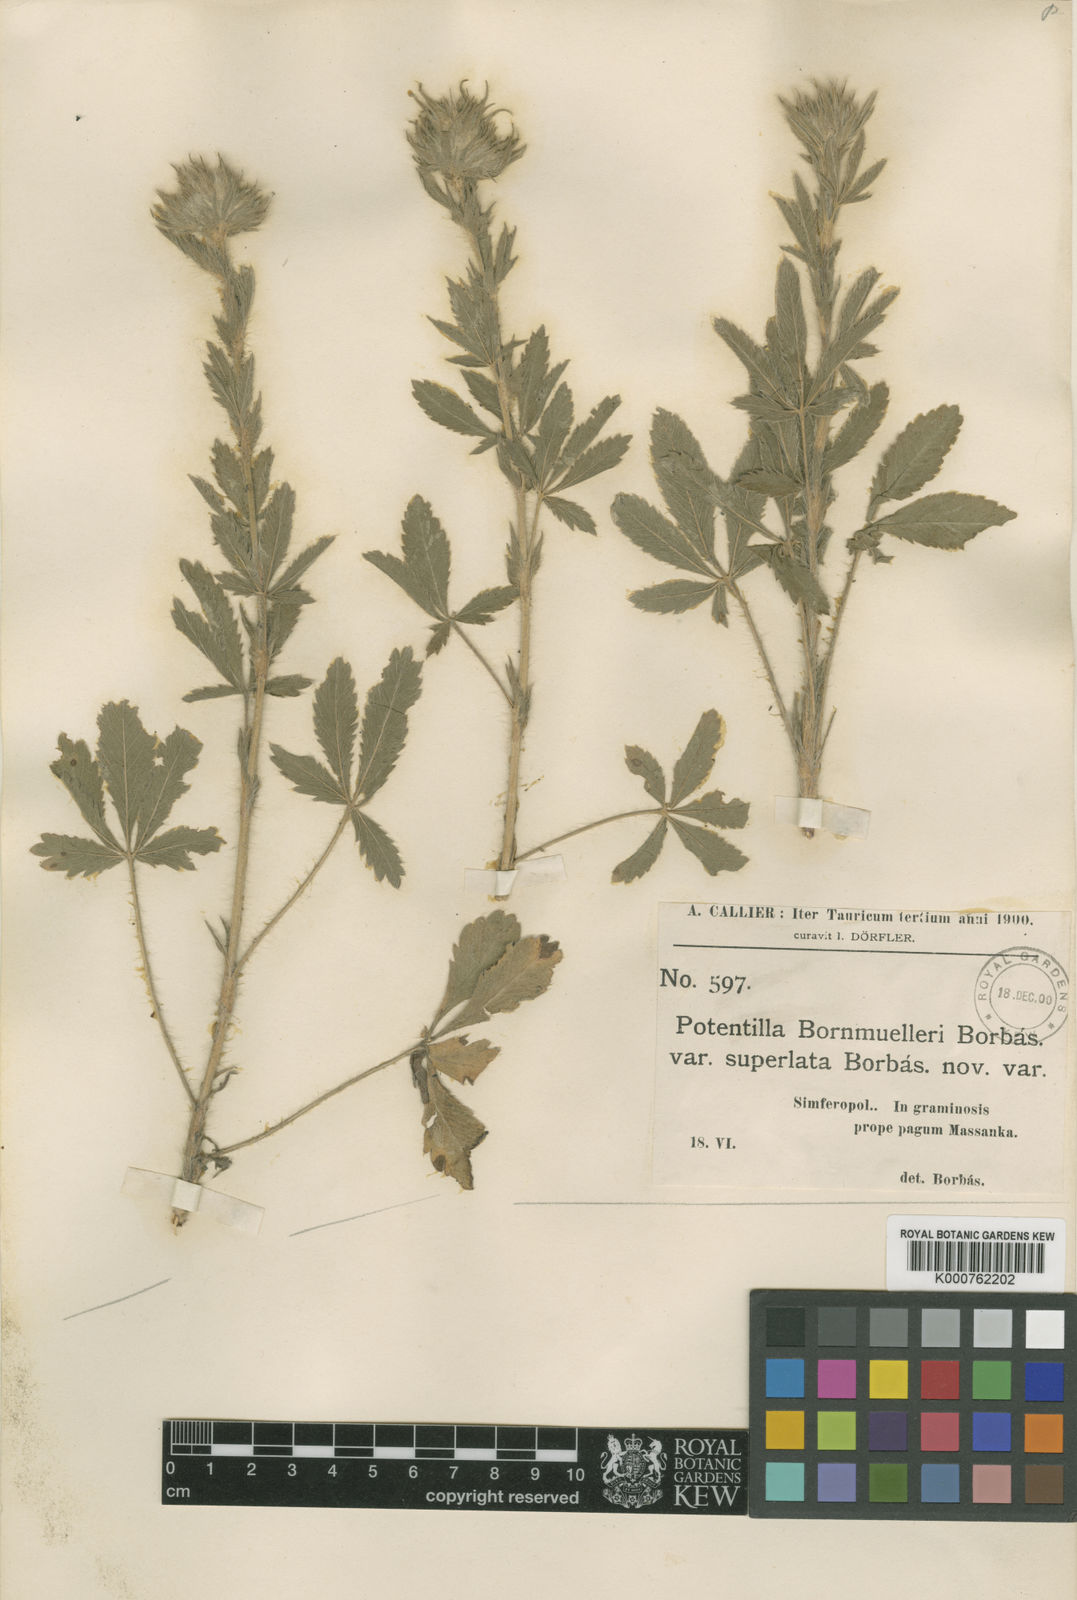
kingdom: Plantae
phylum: Tracheophyta
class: Magnoliopsida
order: Rosales
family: Rosaceae
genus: Potentilla
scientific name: Potentilla taurica
